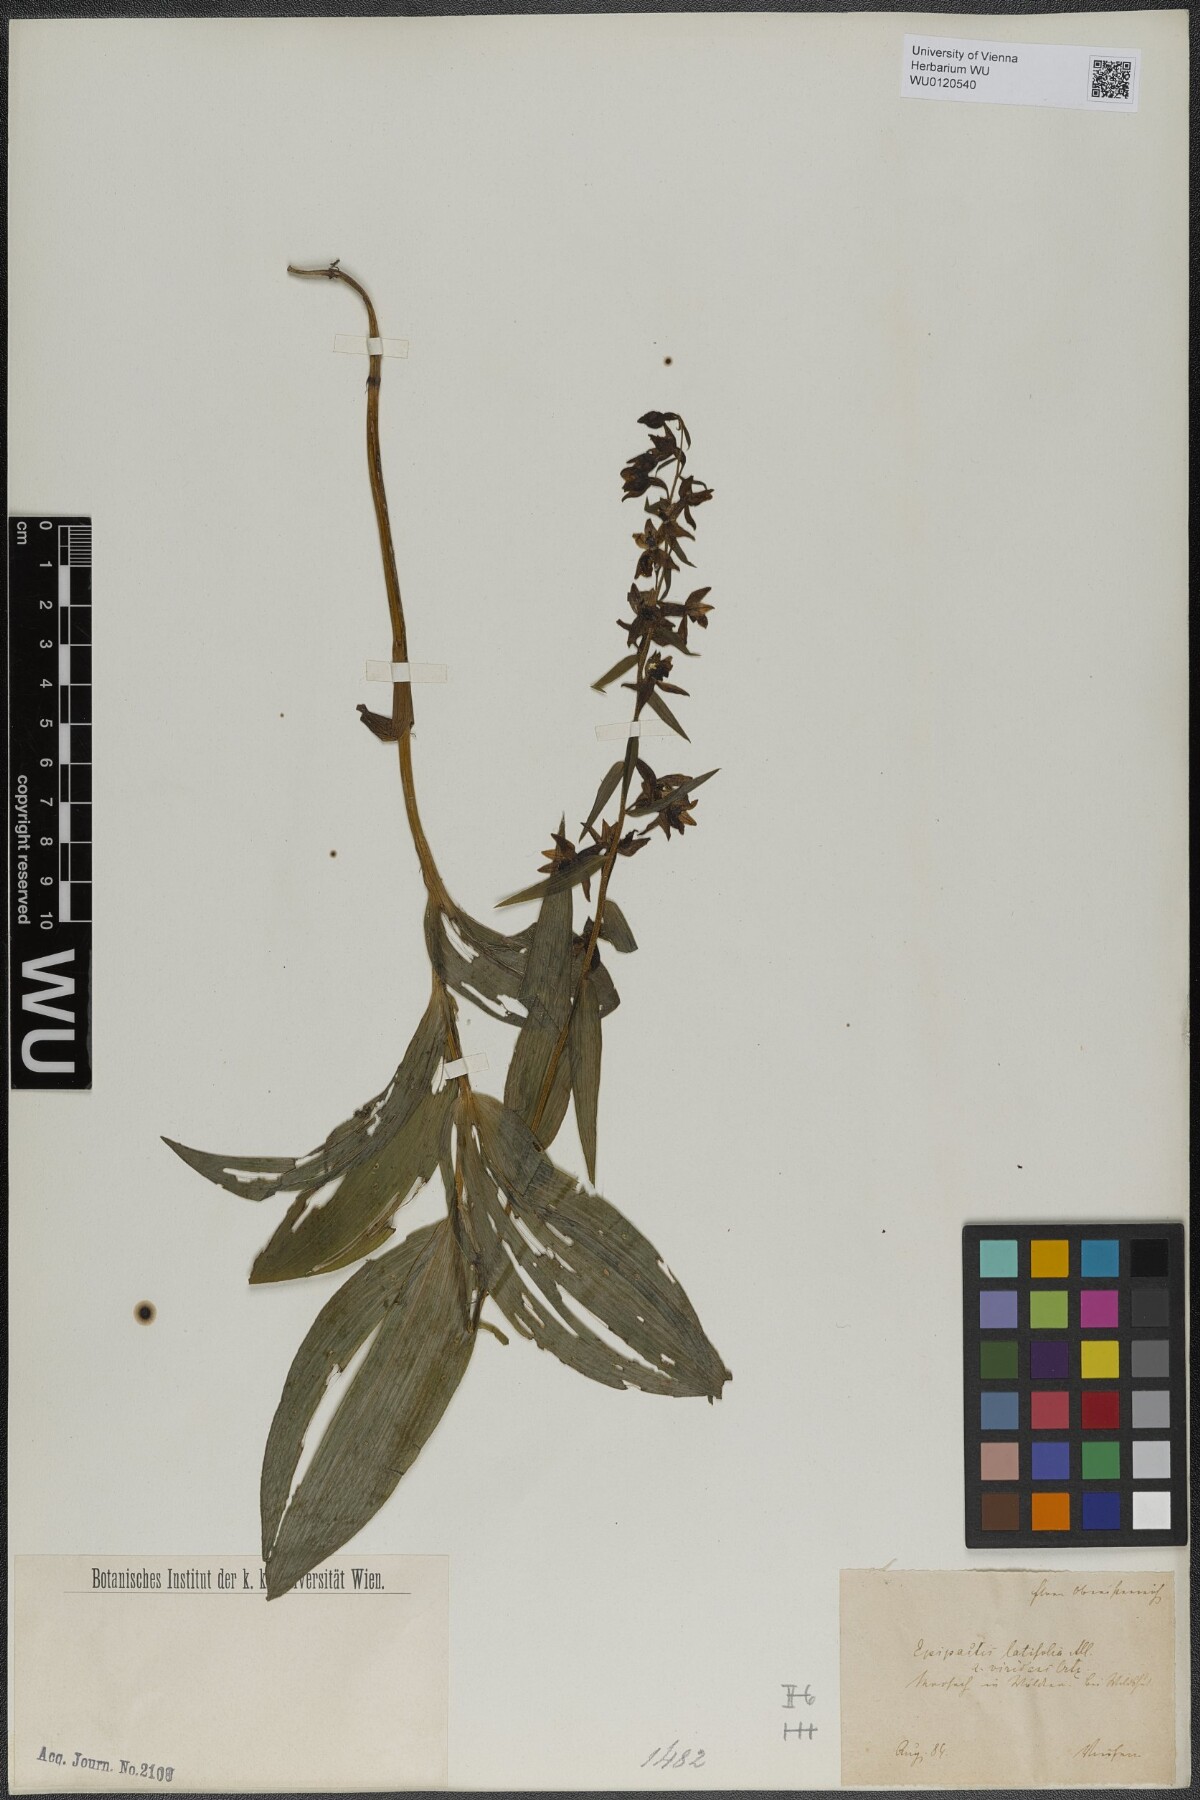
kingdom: Plantae
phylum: Tracheophyta
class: Liliopsida
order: Asparagales
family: Orchidaceae
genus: Epipactis
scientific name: Epipactis atrorubens
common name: Dark-red helleborine
